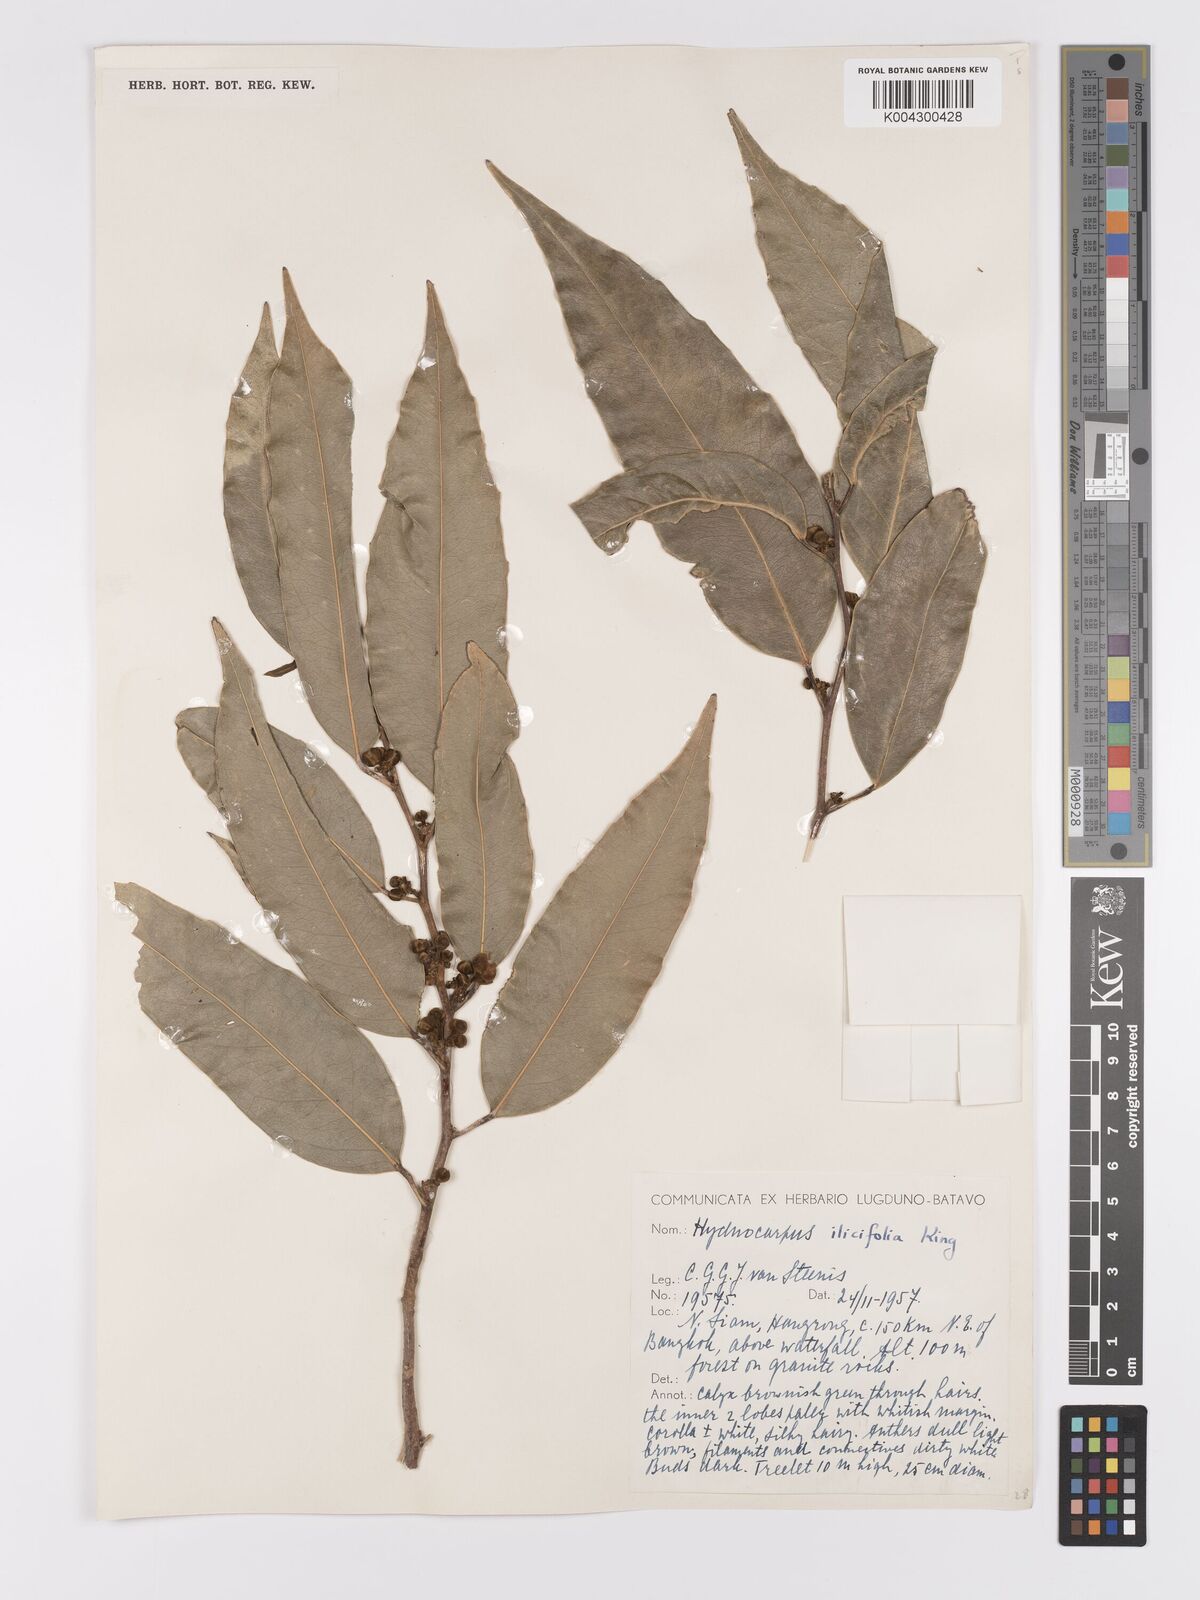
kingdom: Plantae
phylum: Tracheophyta
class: Magnoliopsida
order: Malpighiales
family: Achariaceae
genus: Hydnocarpus
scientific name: Hydnocarpus ilicifolius
